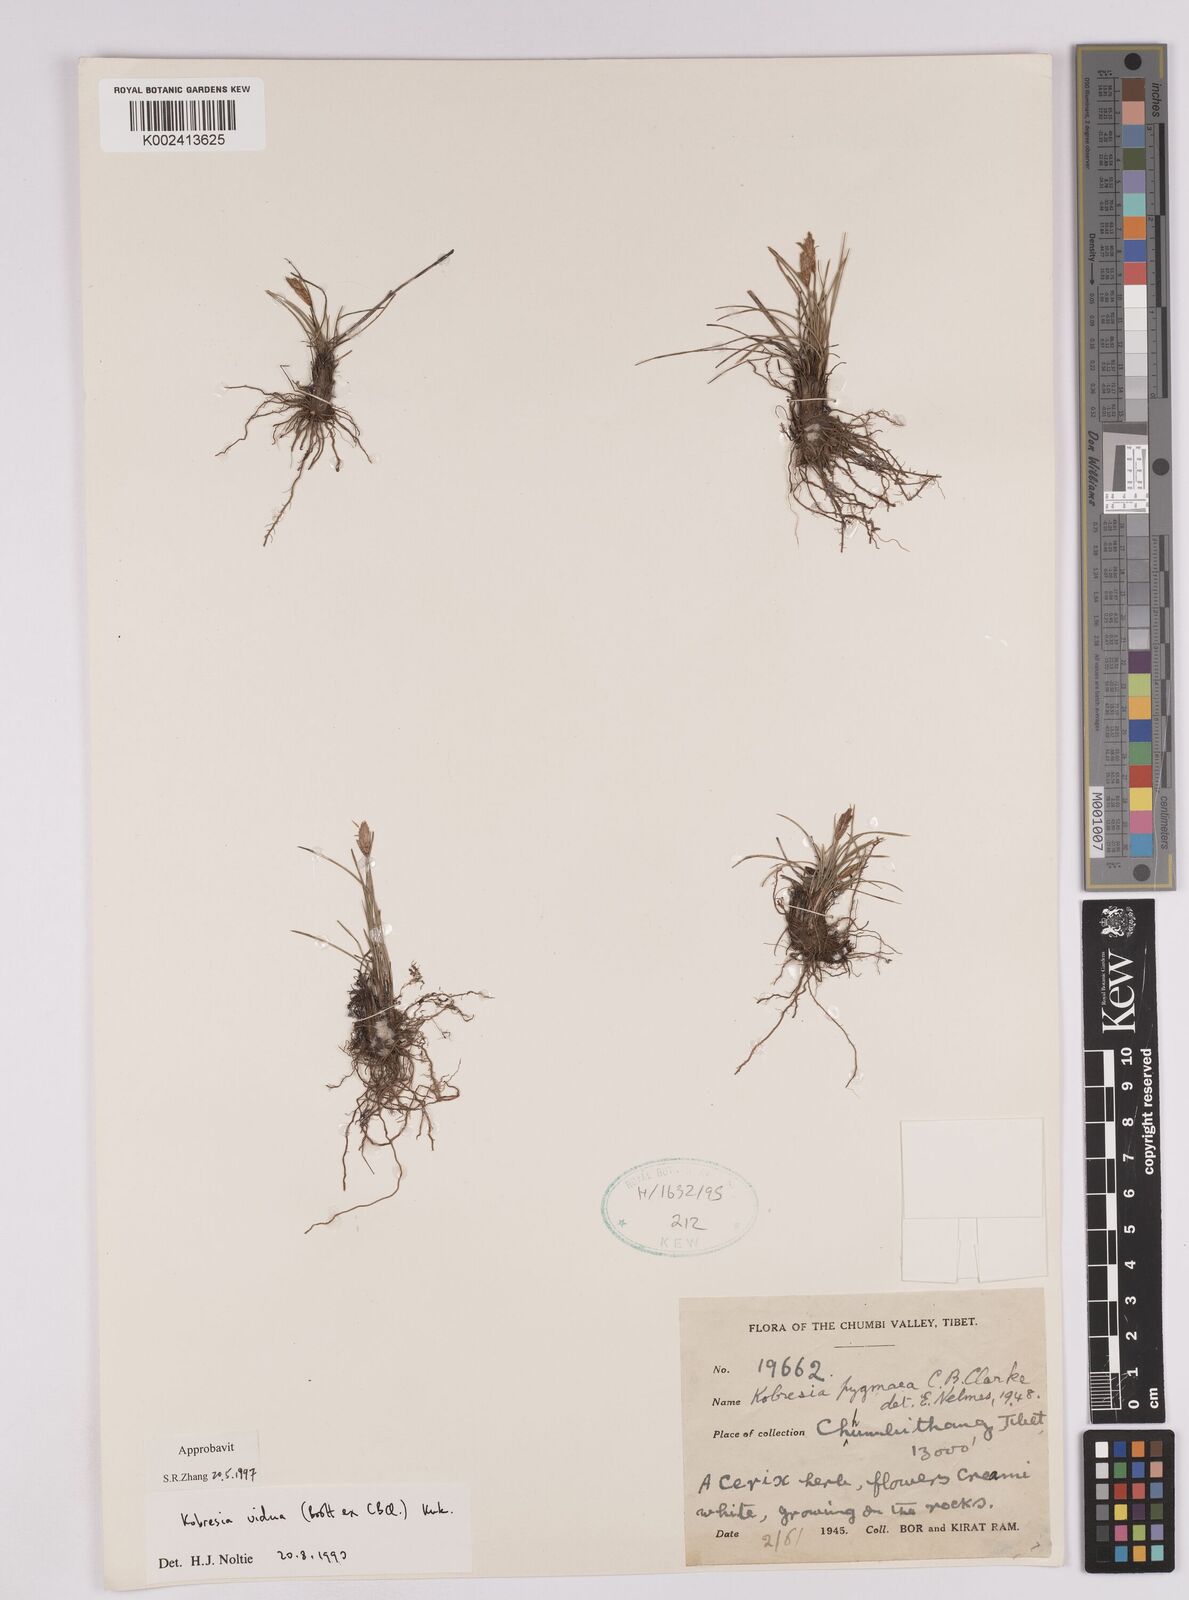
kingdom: Plantae
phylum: Tracheophyta
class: Liliopsida
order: Poales
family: Cyperaceae
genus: Carex
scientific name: Carex vidua
